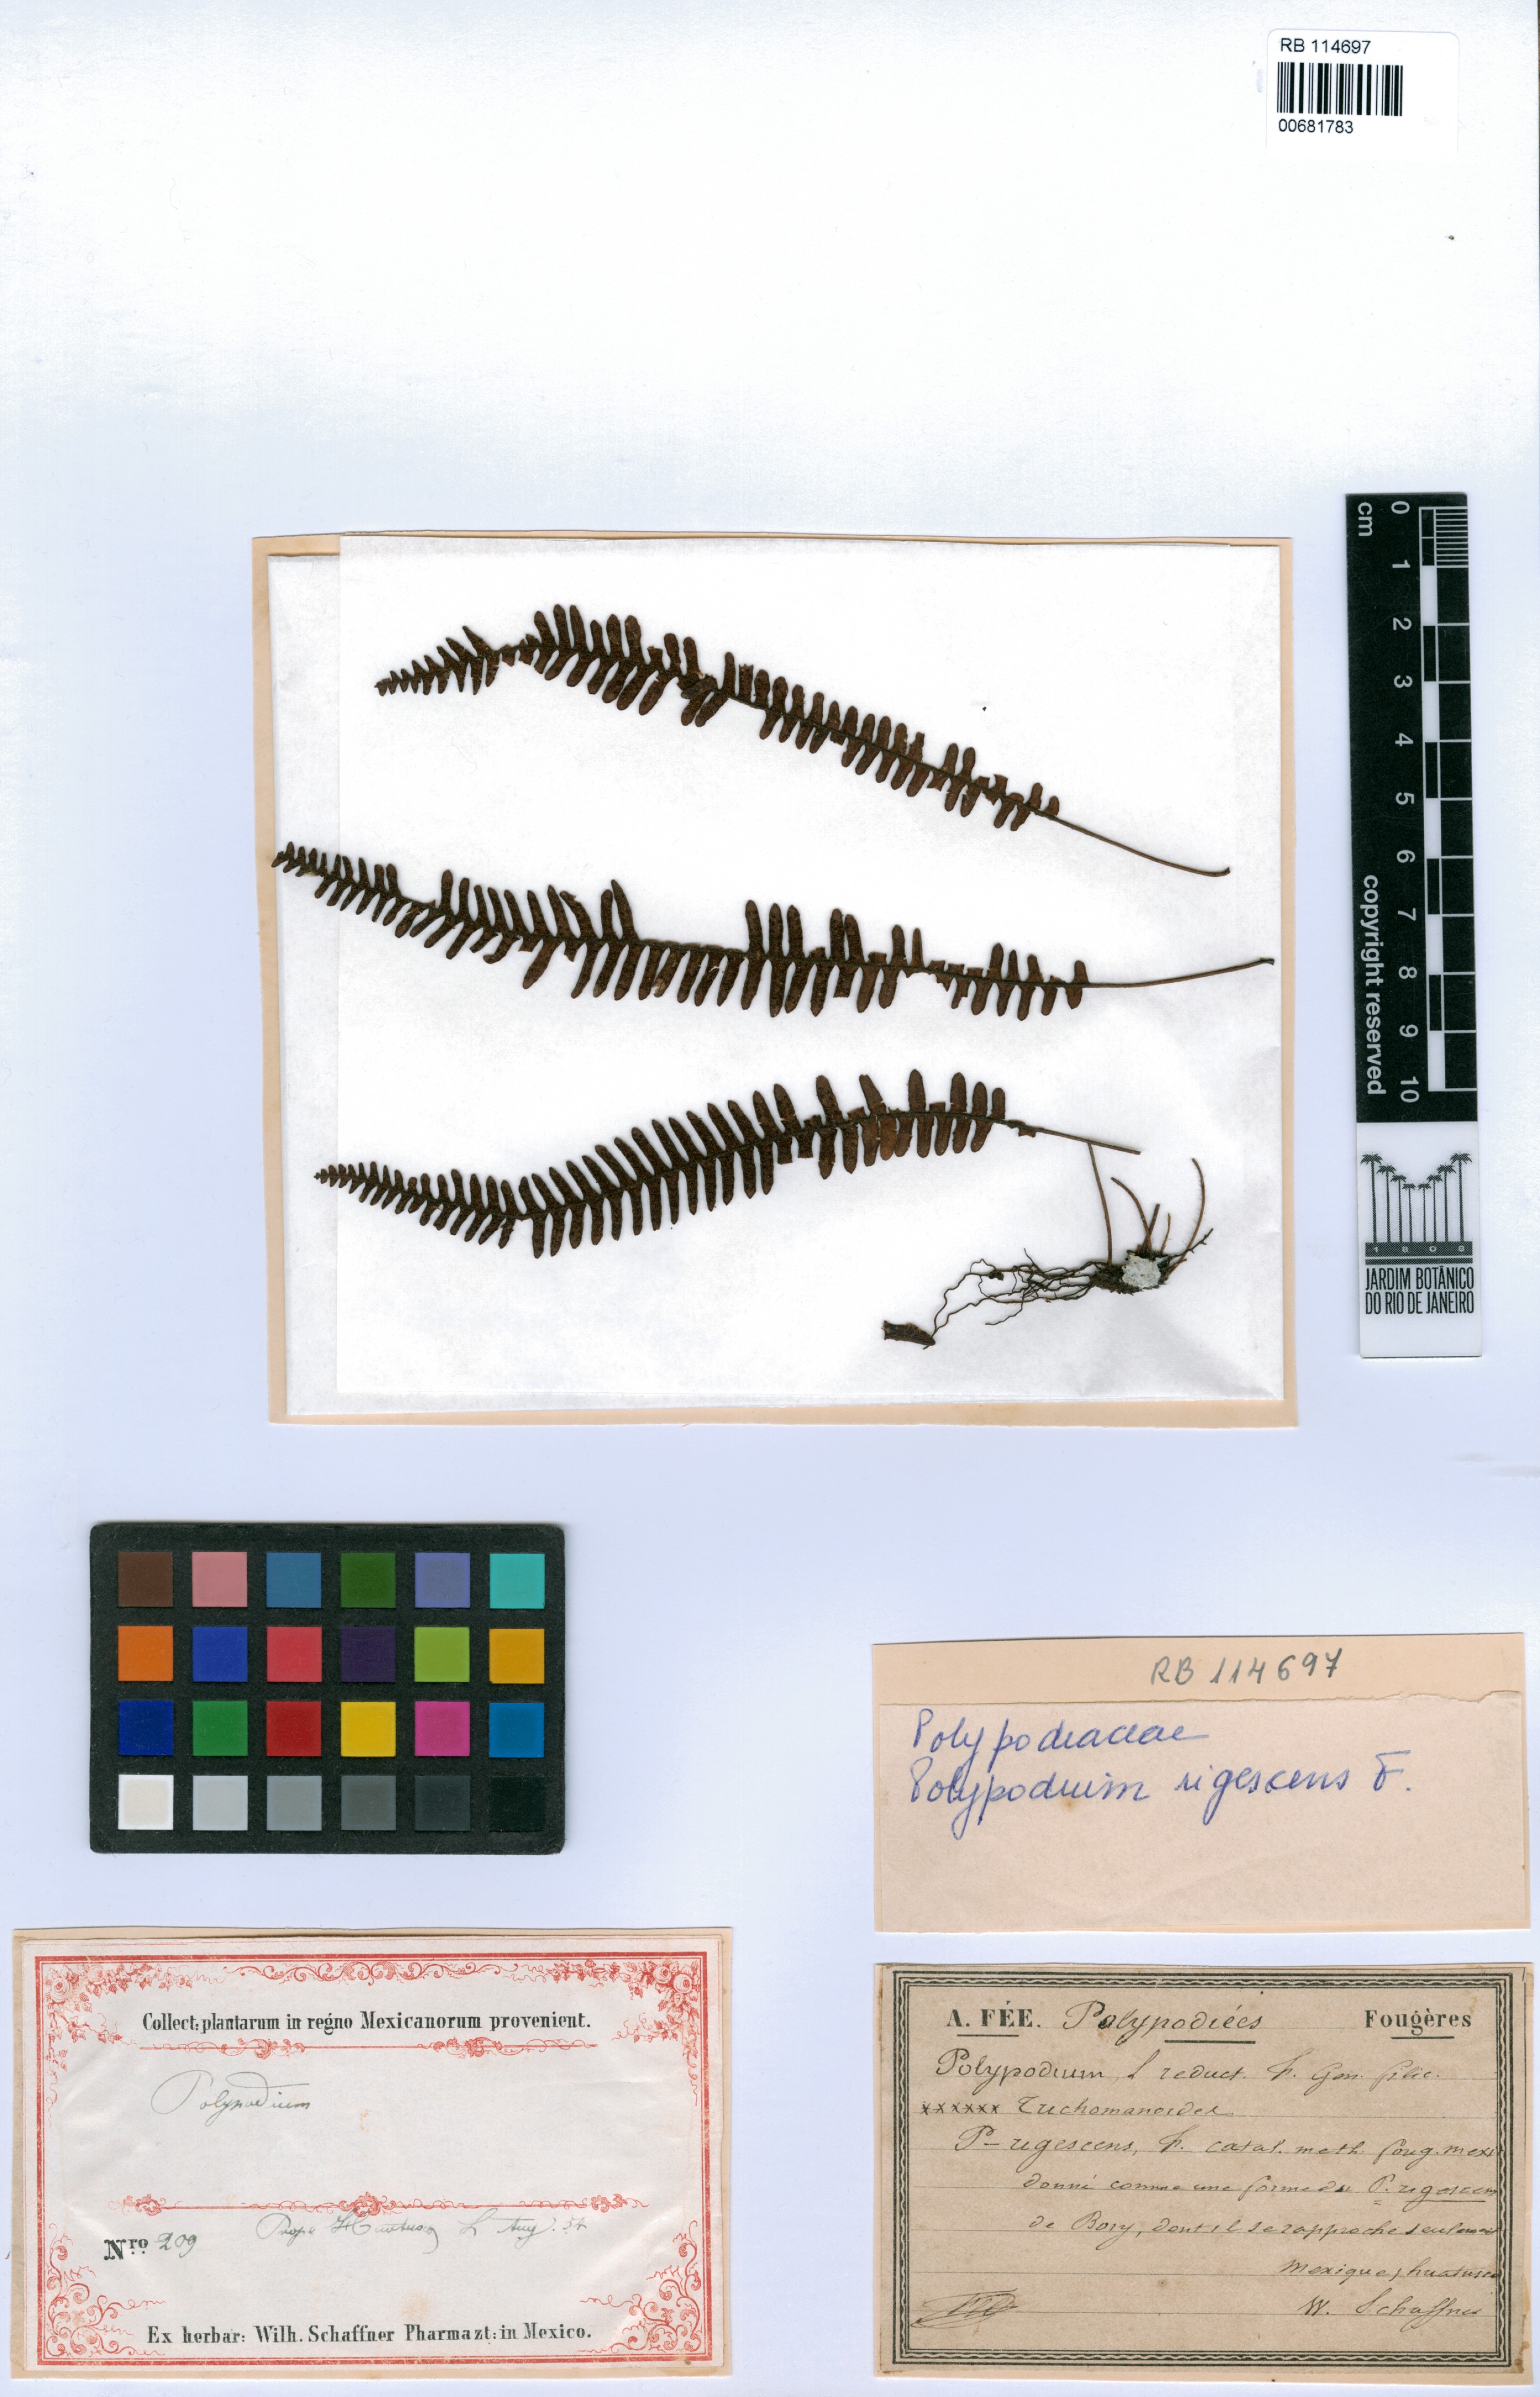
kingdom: Plantae
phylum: Tracheophyta
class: Polypodiopsida
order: Polypodiales
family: Polypodiaceae
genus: Melpomene
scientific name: Melpomene flabelliformis
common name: Fanleaf dwarf polypody
